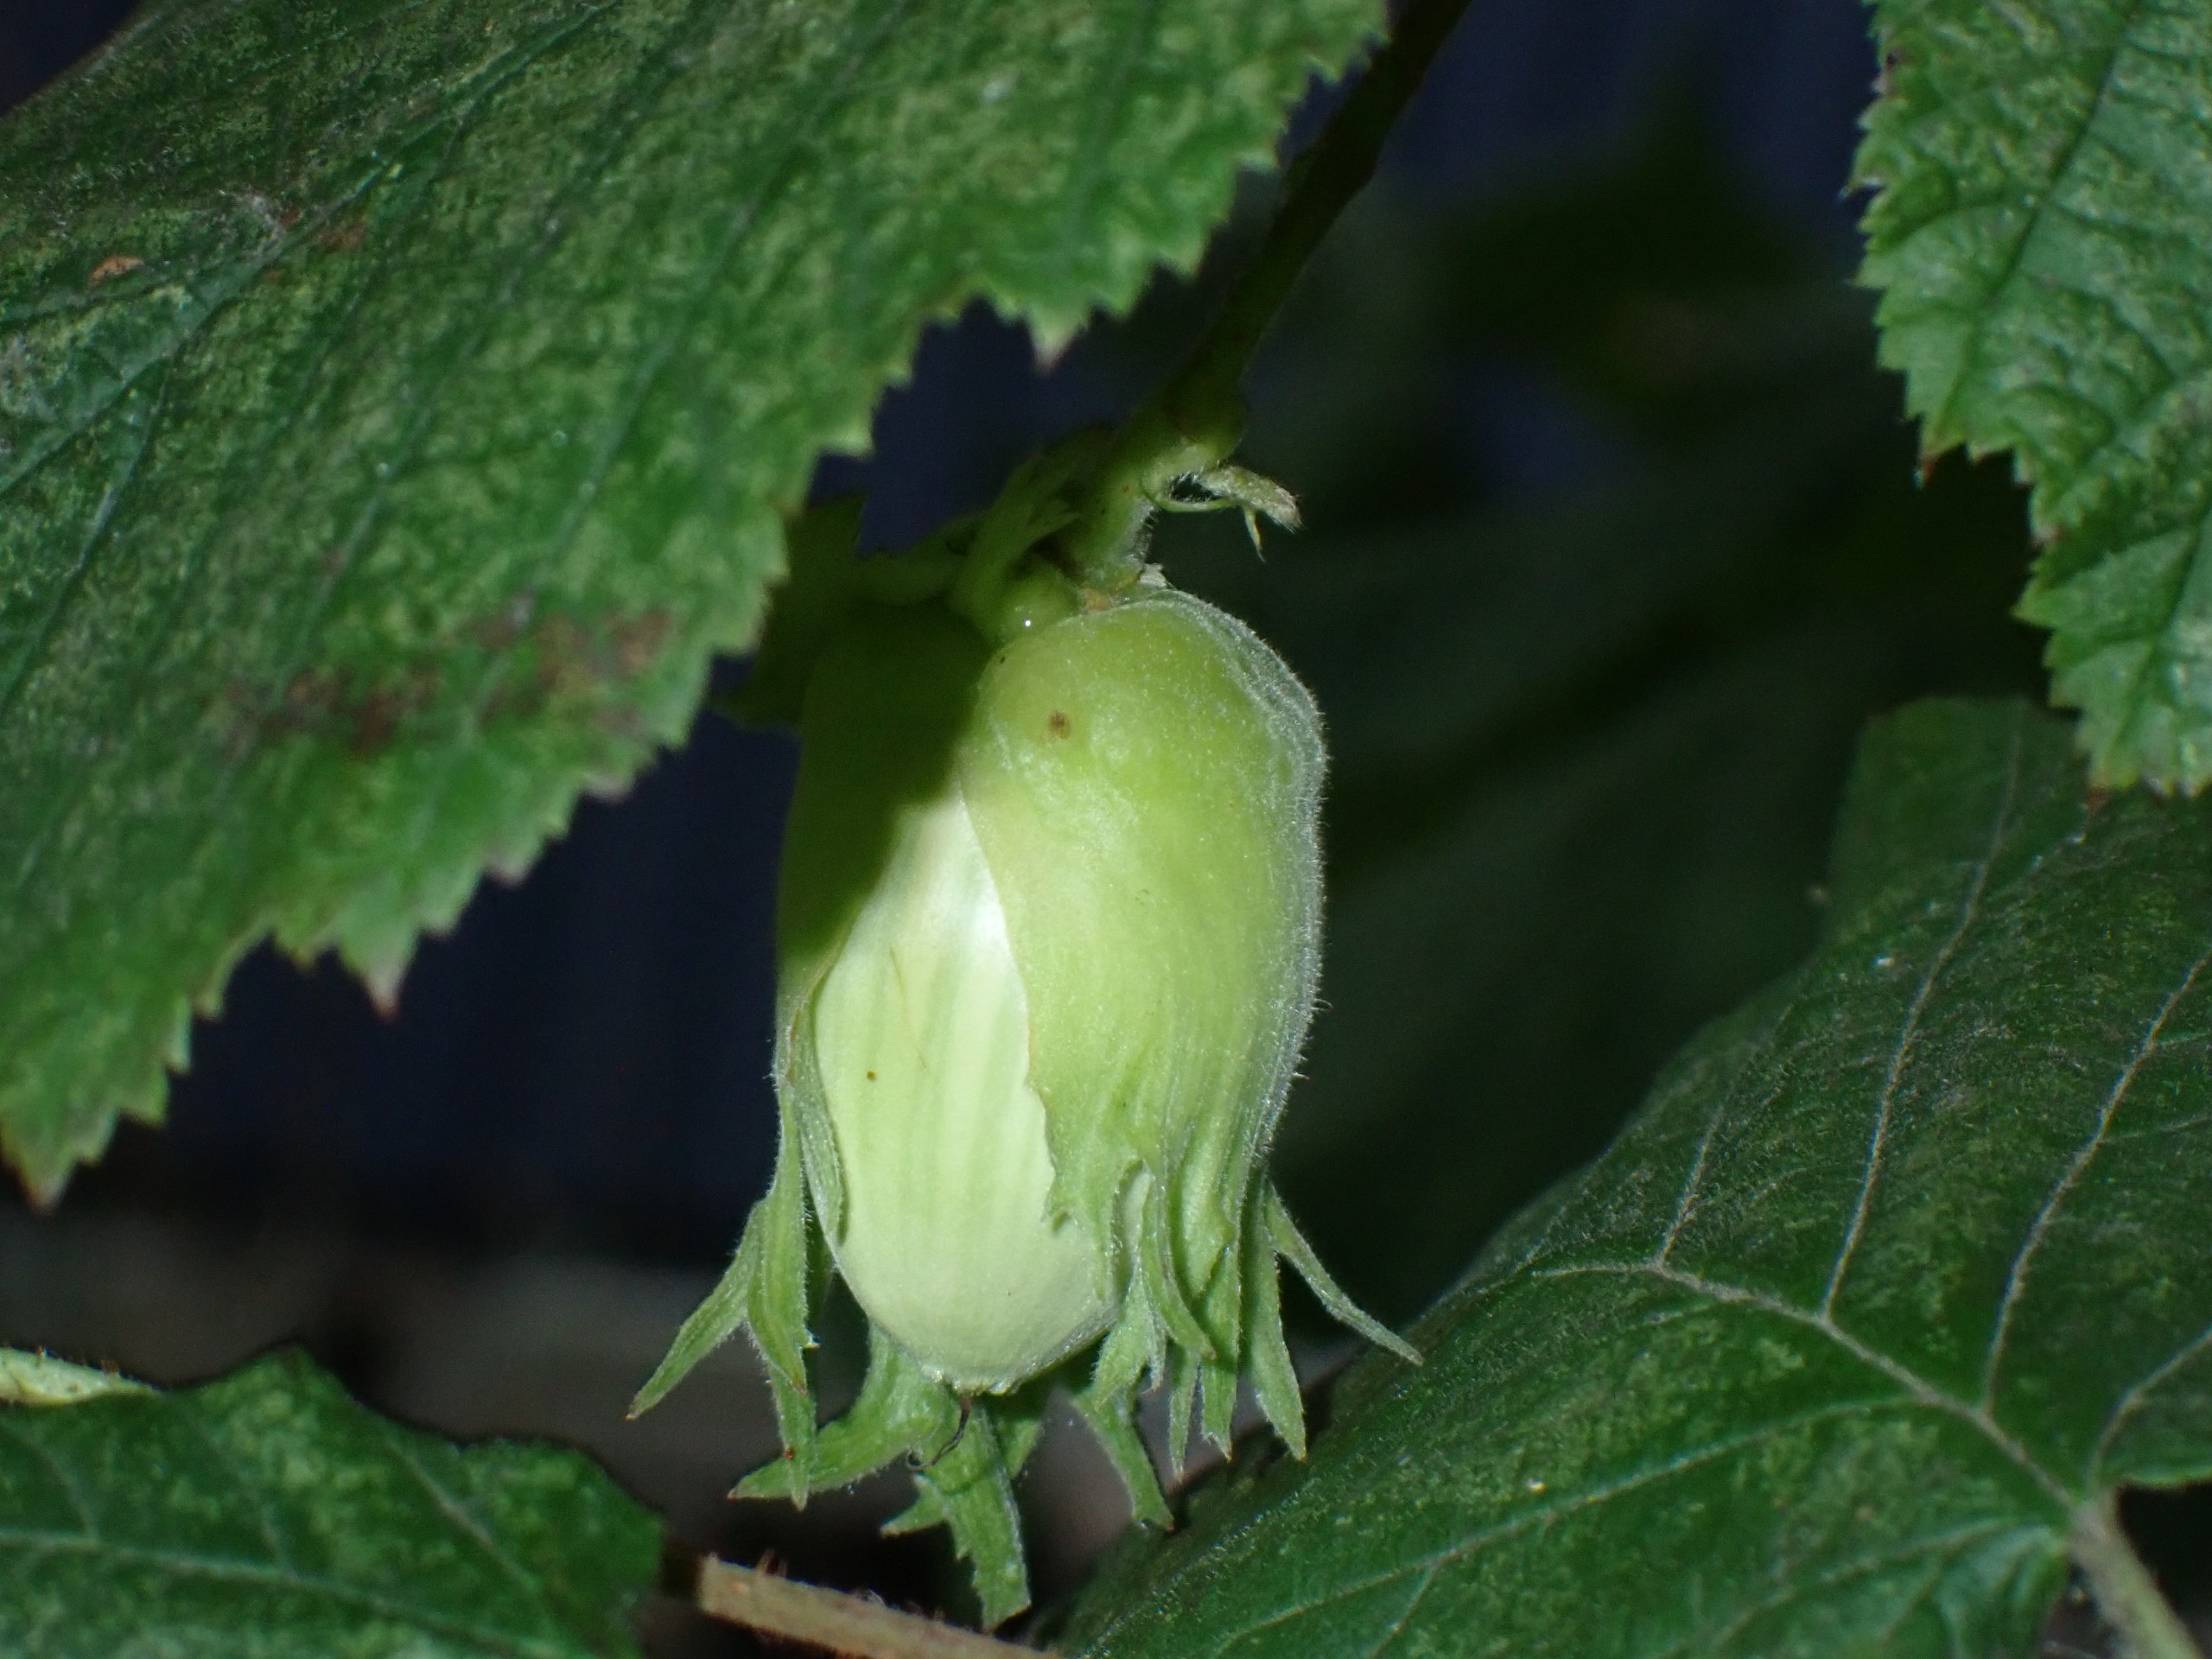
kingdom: Plantae
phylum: Tracheophyta
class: Magnoliopsida
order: Fagales
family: Betulaceae
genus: Corylus
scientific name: Corylus avellana
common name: Hassel
